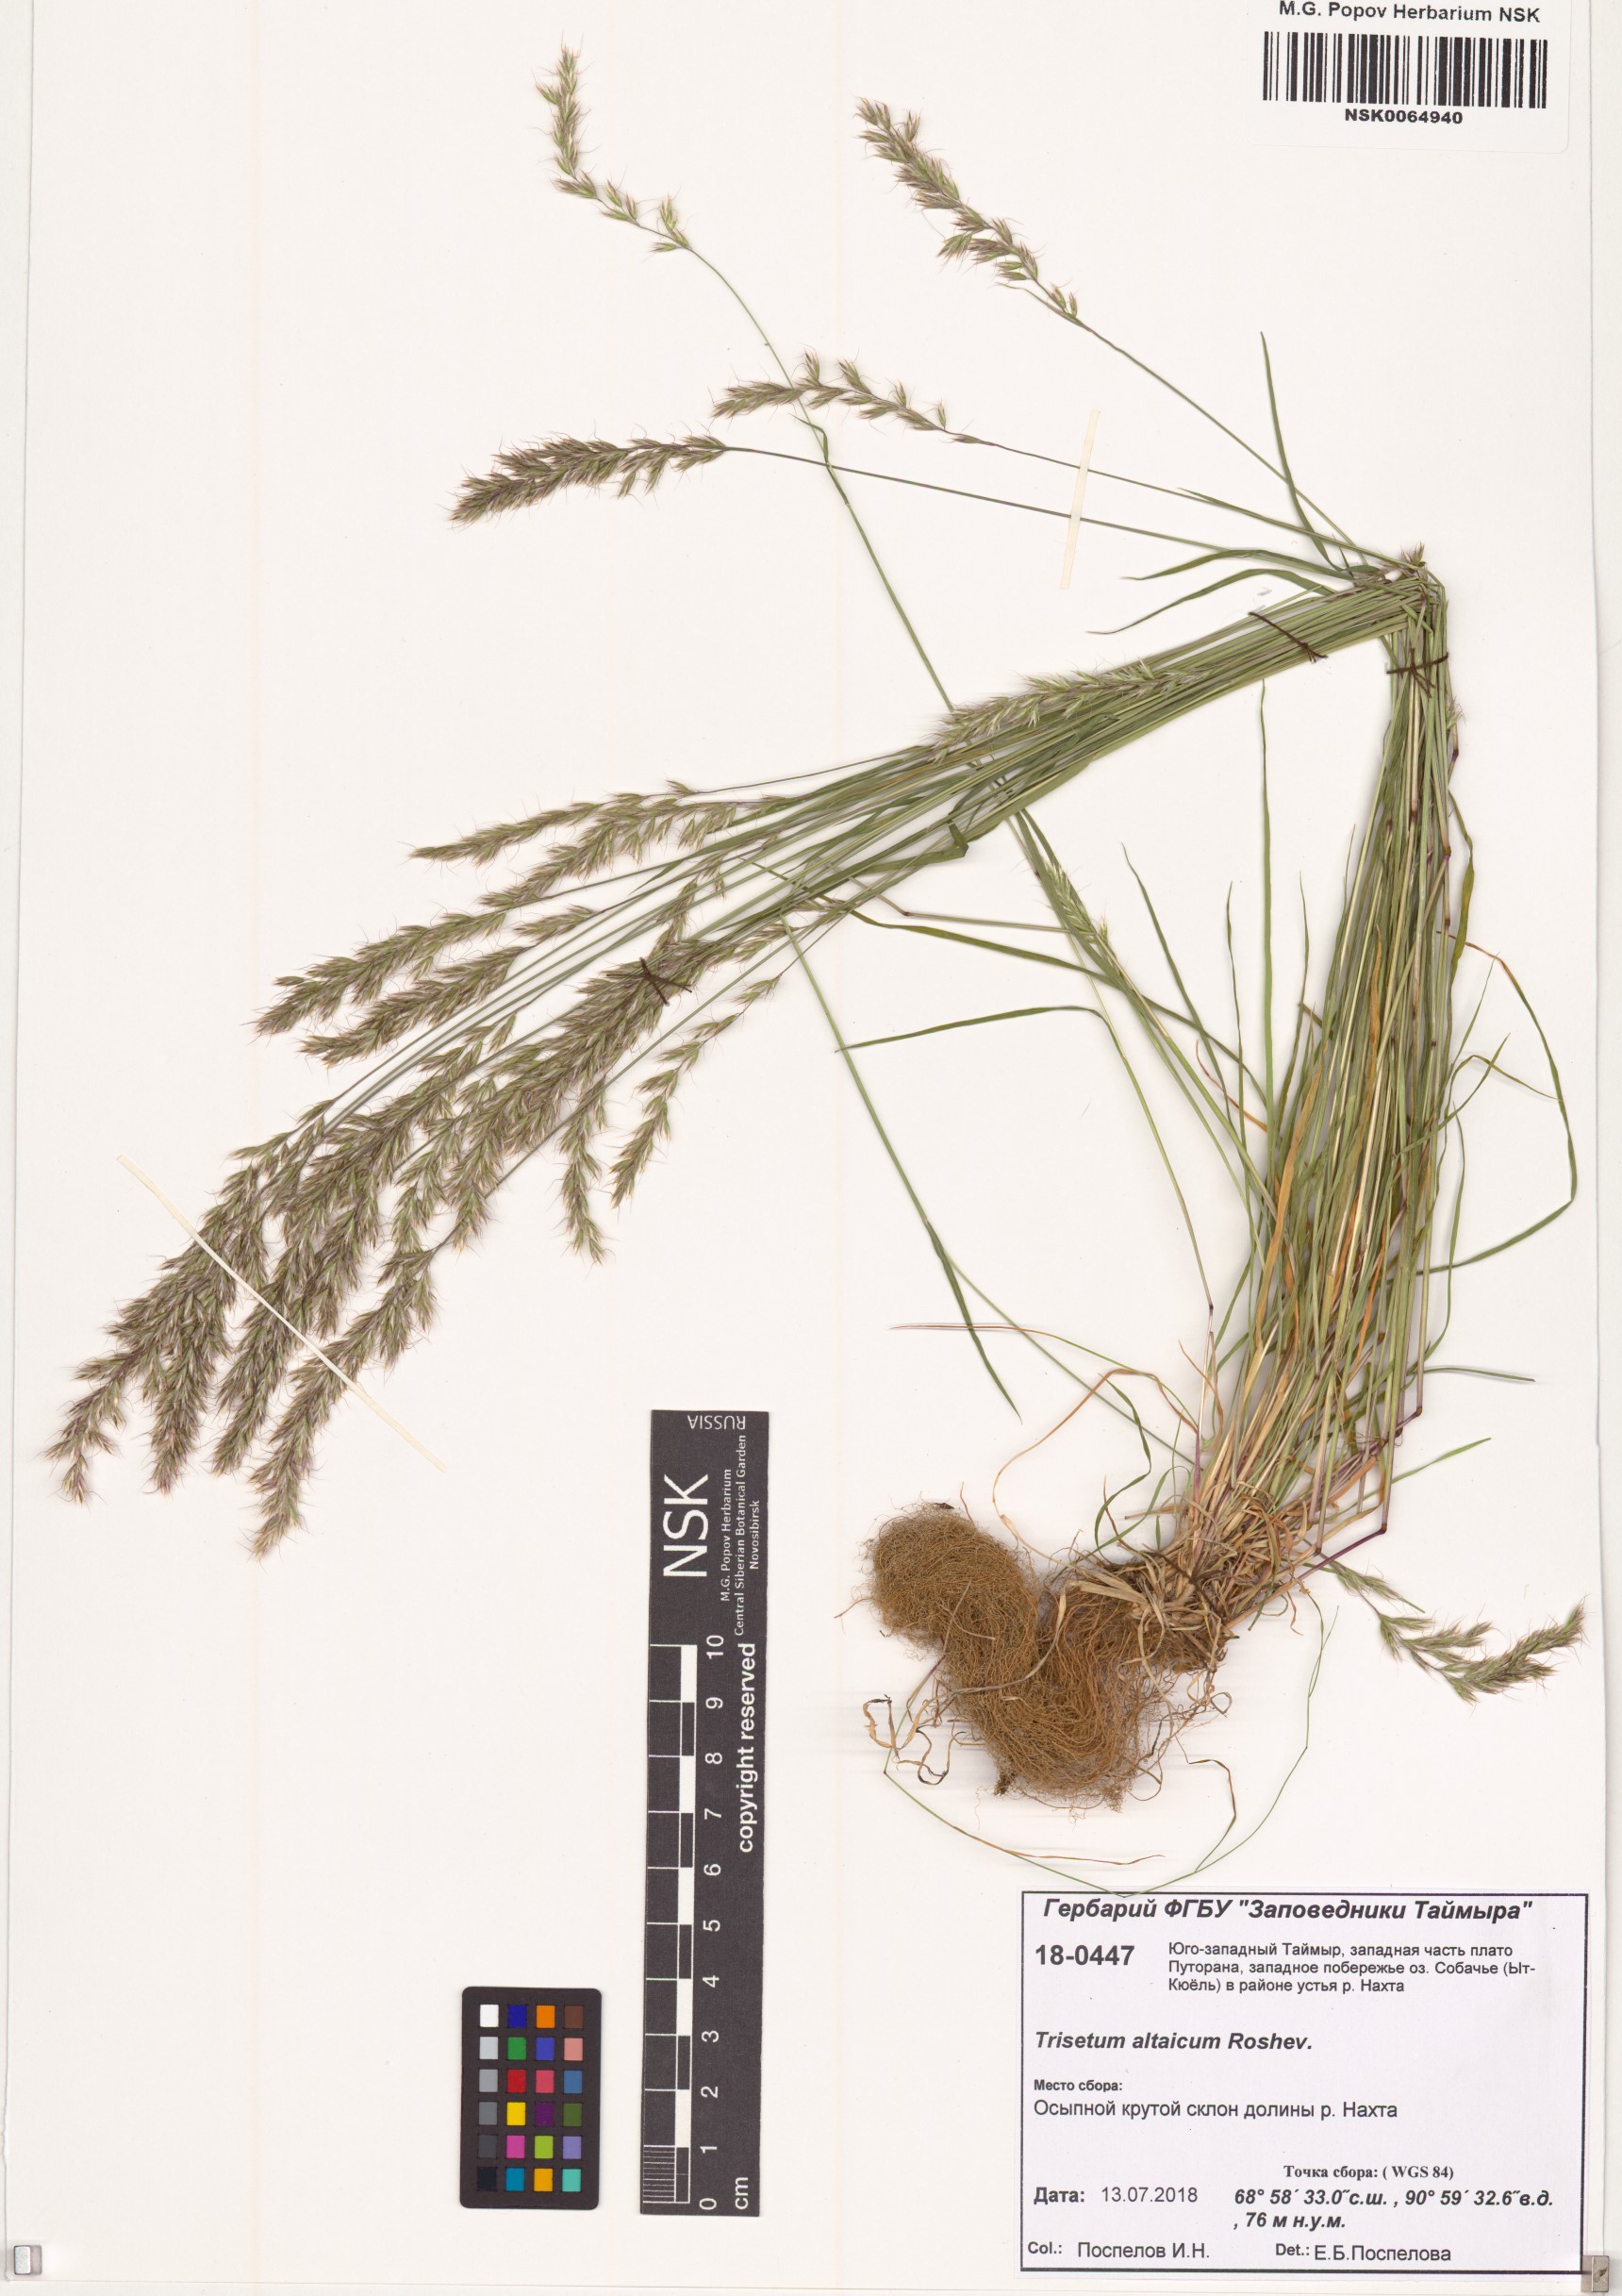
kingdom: Plantae
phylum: Tracheophyta
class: Liliopsida
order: Poales
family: Poaceae
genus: Trisetum
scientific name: Trisetum altaicum
